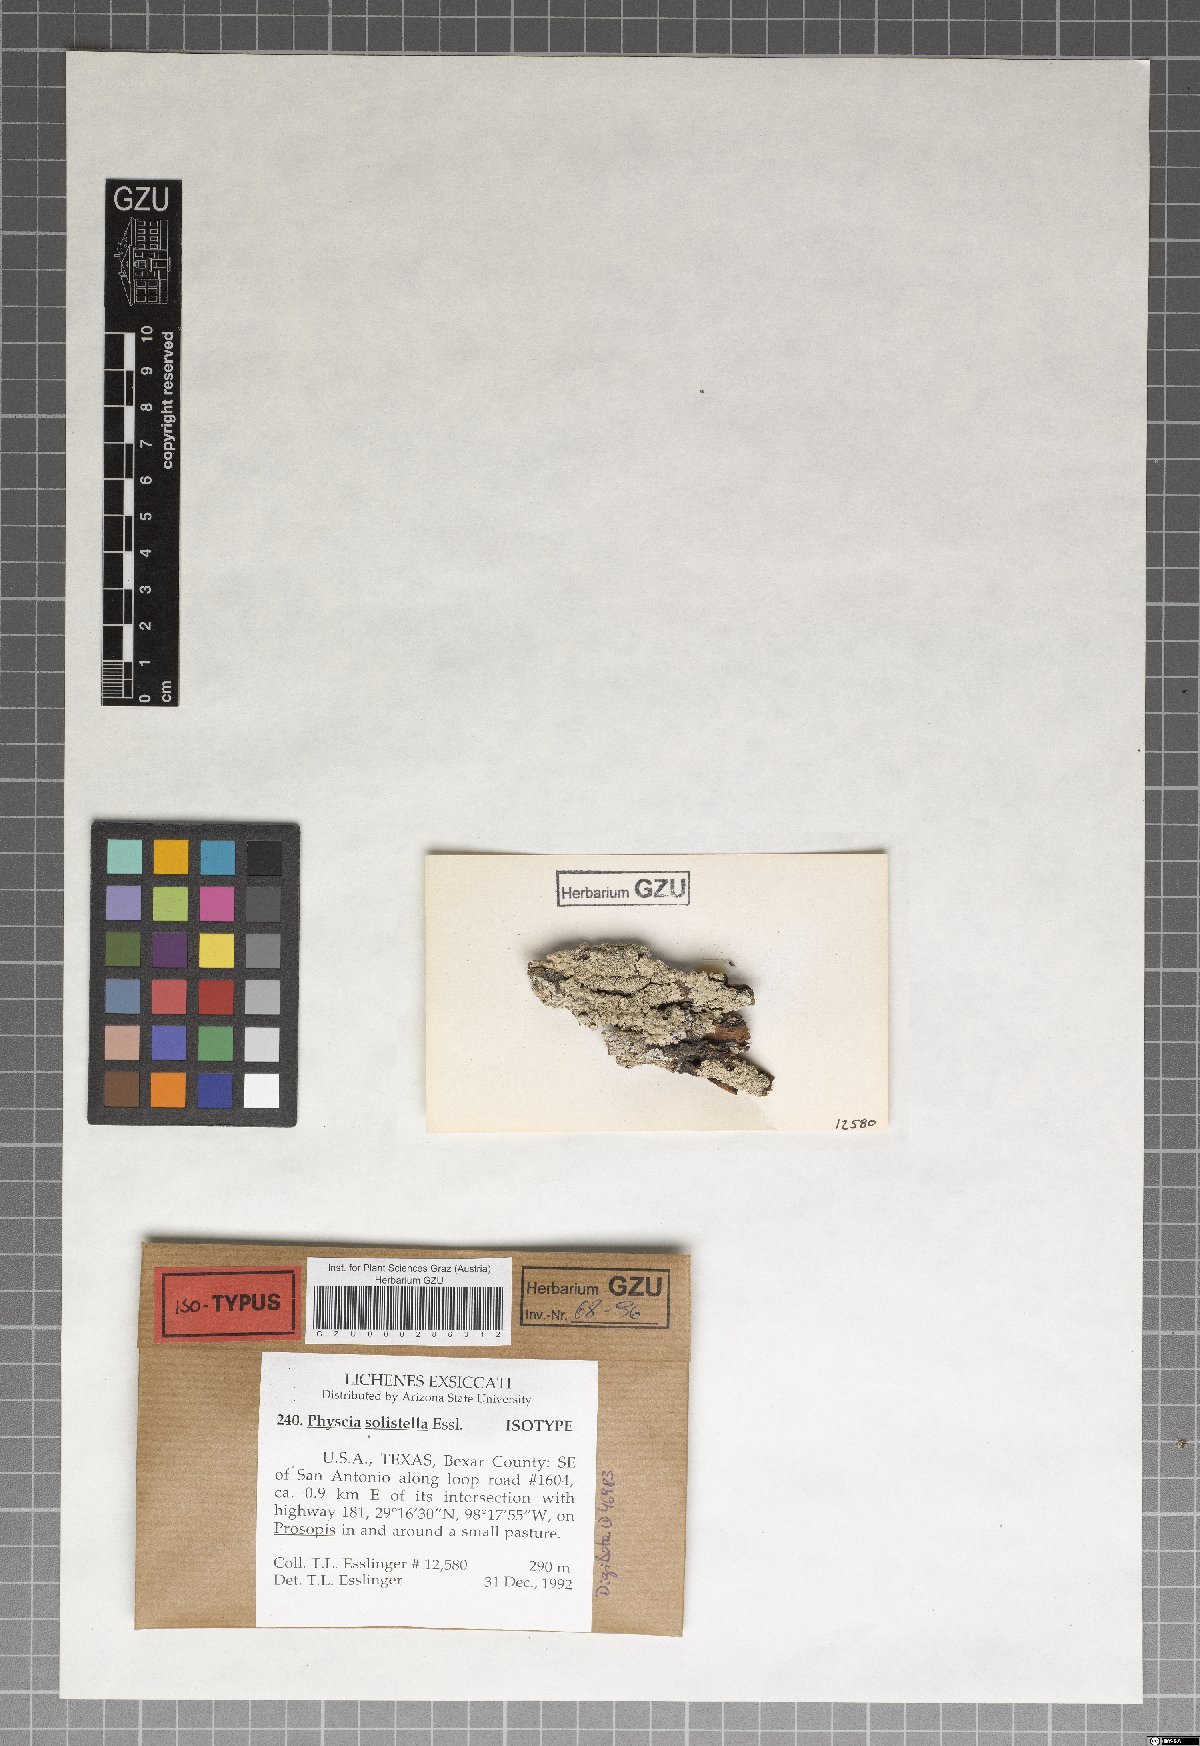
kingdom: Fungi
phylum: Ascomycota
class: Lecanoromycetes
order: Caliciales
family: Physciaceae
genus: Physcia
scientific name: Physcia solistella
